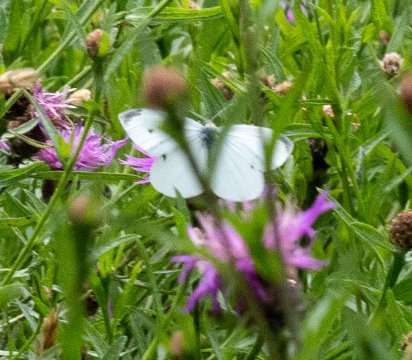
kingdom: Animalia
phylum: Arthropoda
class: Insecta
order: Lepidoptera
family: Pieridae
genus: Pieris
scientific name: Pieris rapae
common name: Cabbage White
